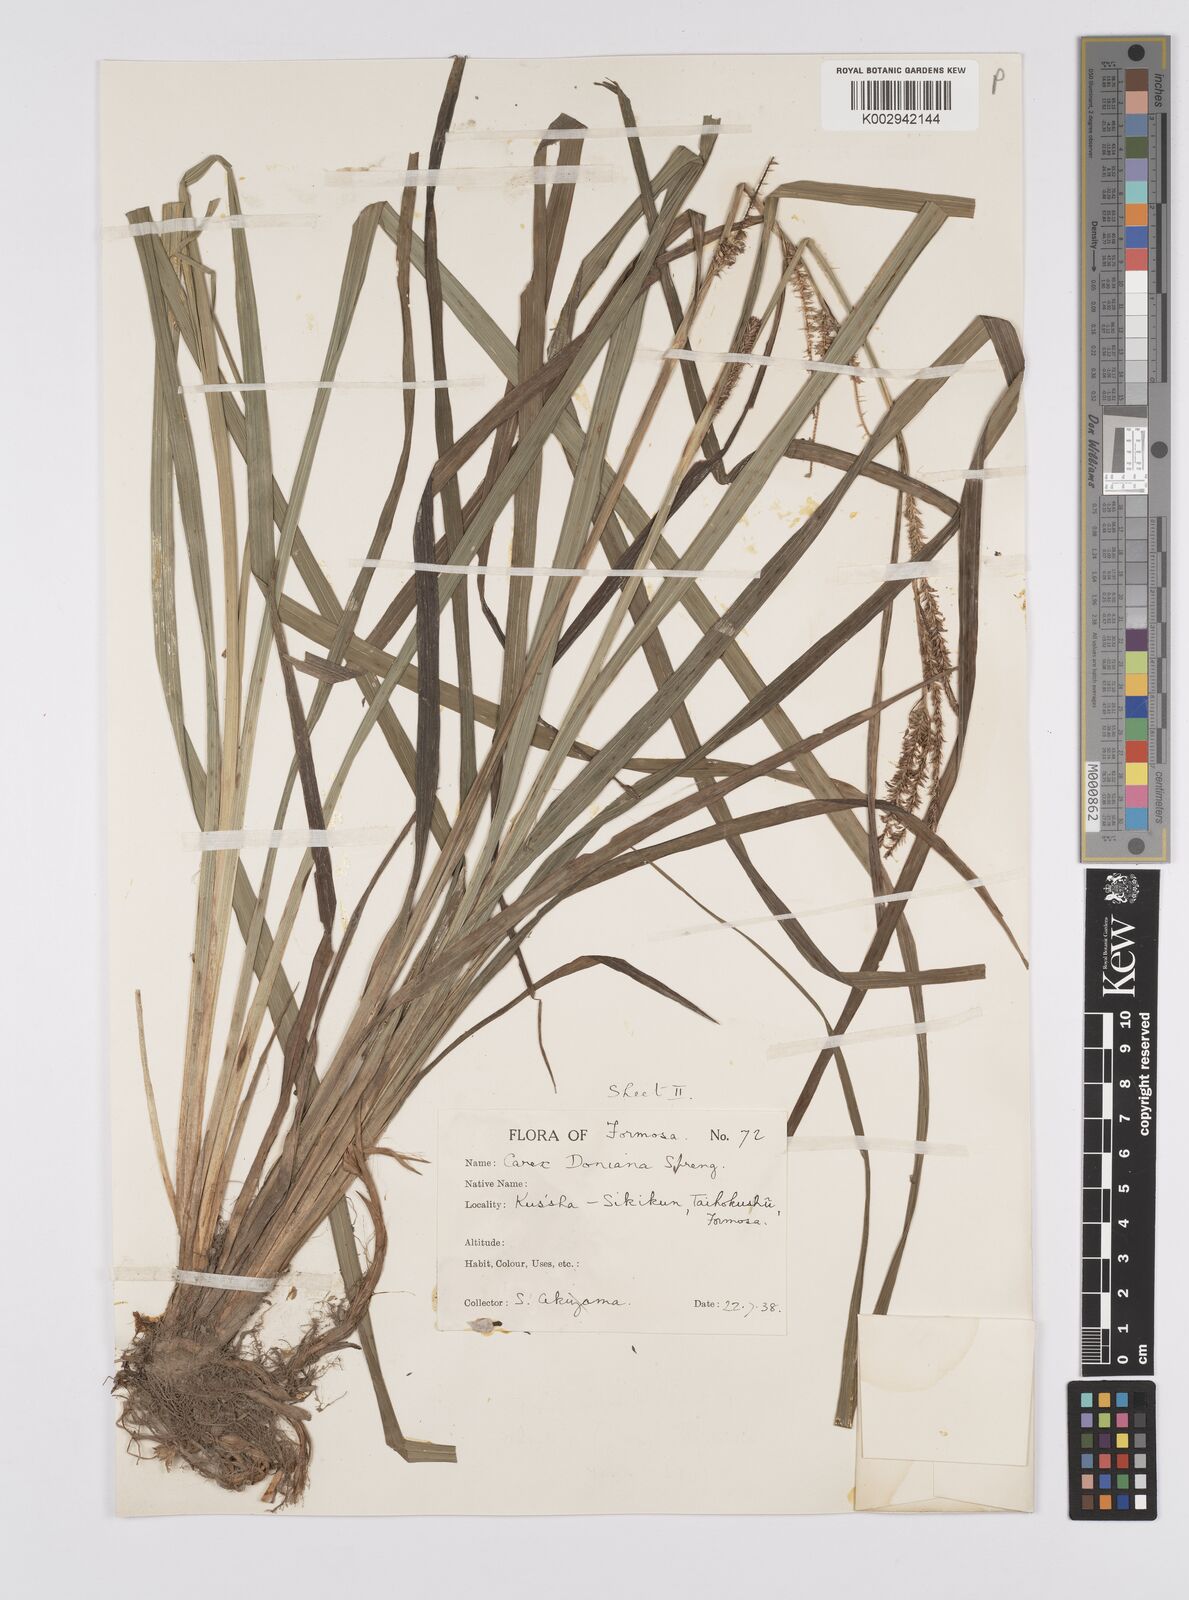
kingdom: Plantae
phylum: Tracheophyta
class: Liliopsida
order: Poales
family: Cyperaceae
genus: Carex
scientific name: Carex japonica
